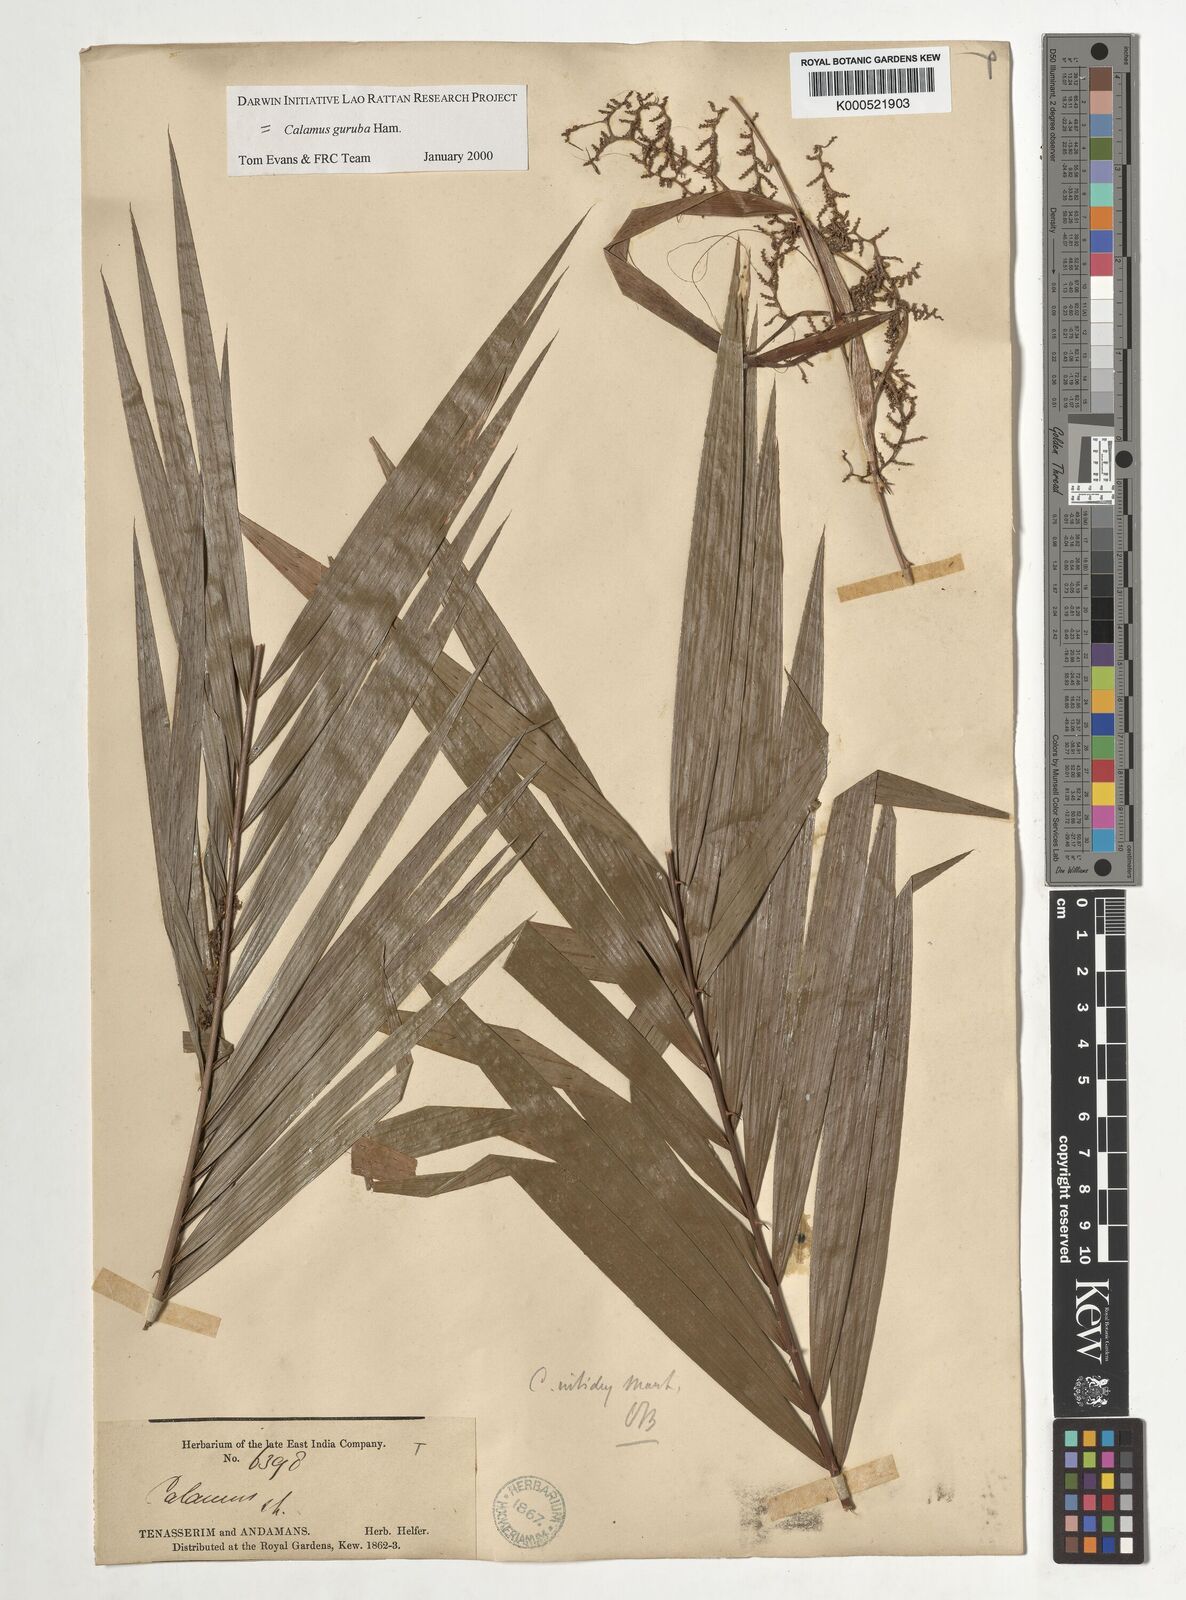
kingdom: Plantae
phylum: Tracheophyta
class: Liliopsida
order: Arecales
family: Arecaceae
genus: Calamus
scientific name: Calamus
